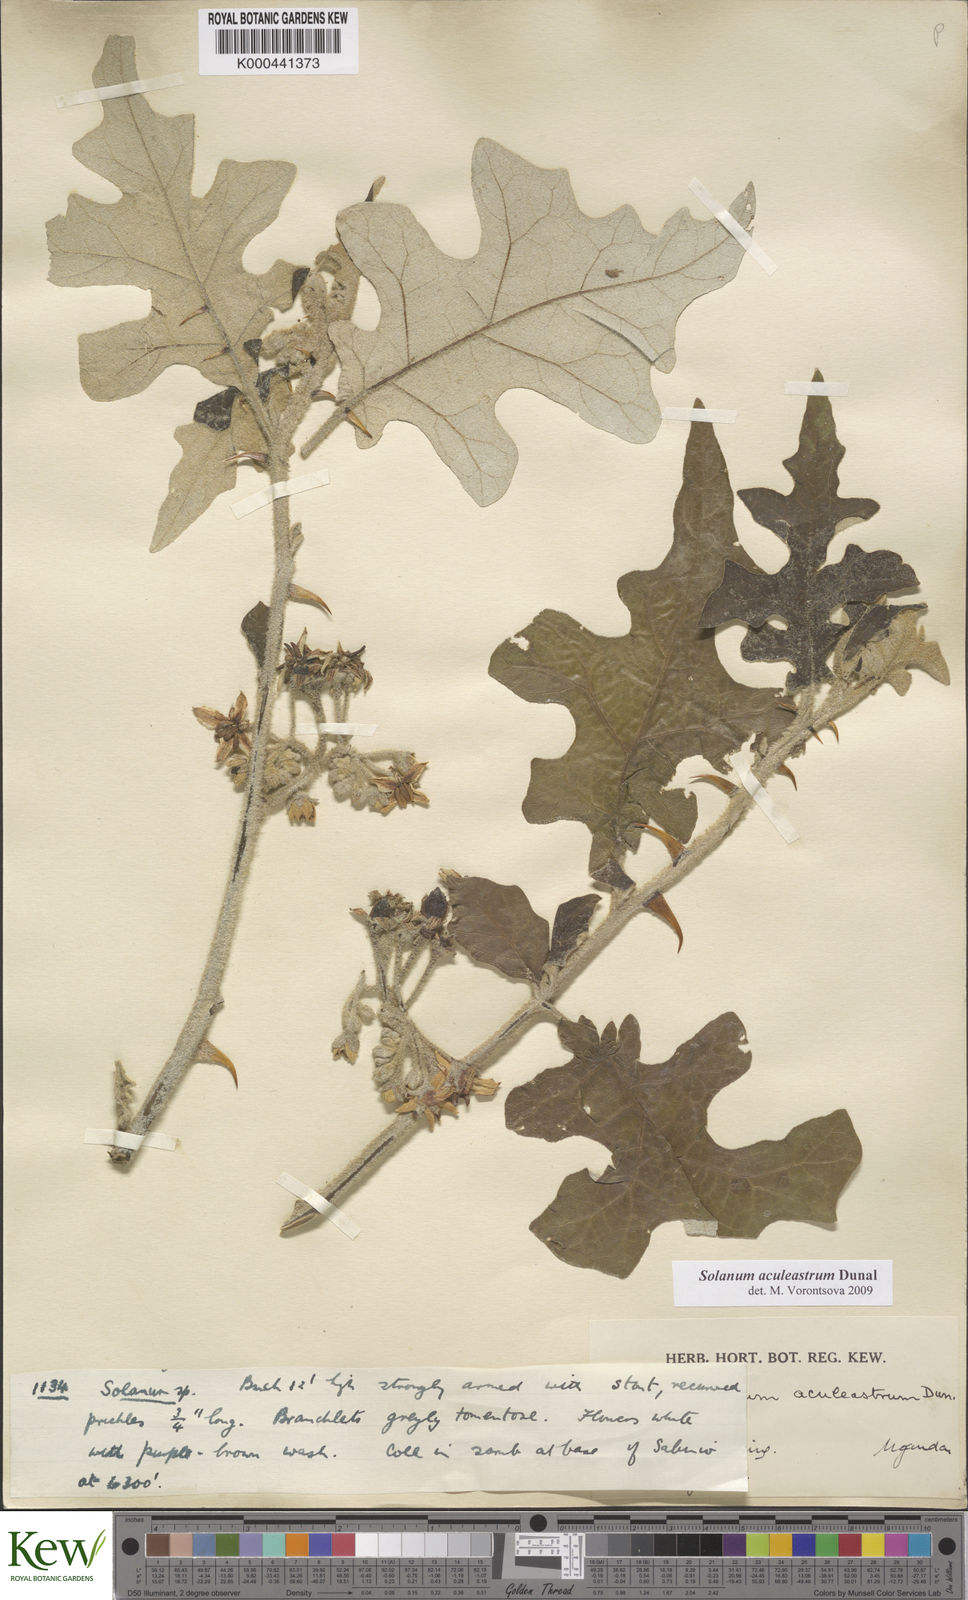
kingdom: Plantae
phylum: Tracheophyta
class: Magnoliopsida
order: Solanales
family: Solanaceae
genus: Solanum
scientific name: Solanum aculeastrum
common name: Goat bitter-apple
